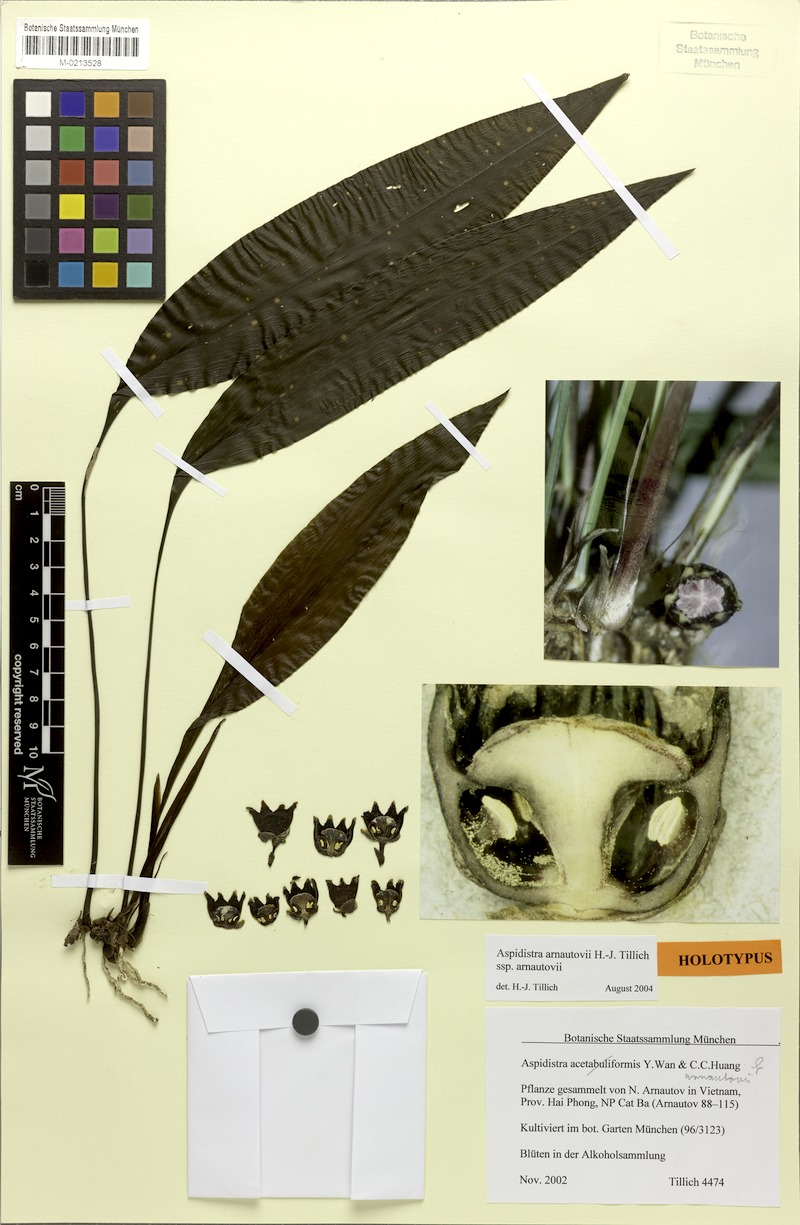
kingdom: Plantae
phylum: Tracheophyta
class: Liliopsida
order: Asparagales
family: Asparagaceae
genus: Aspidistra
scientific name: Aspidistra arnautovii
